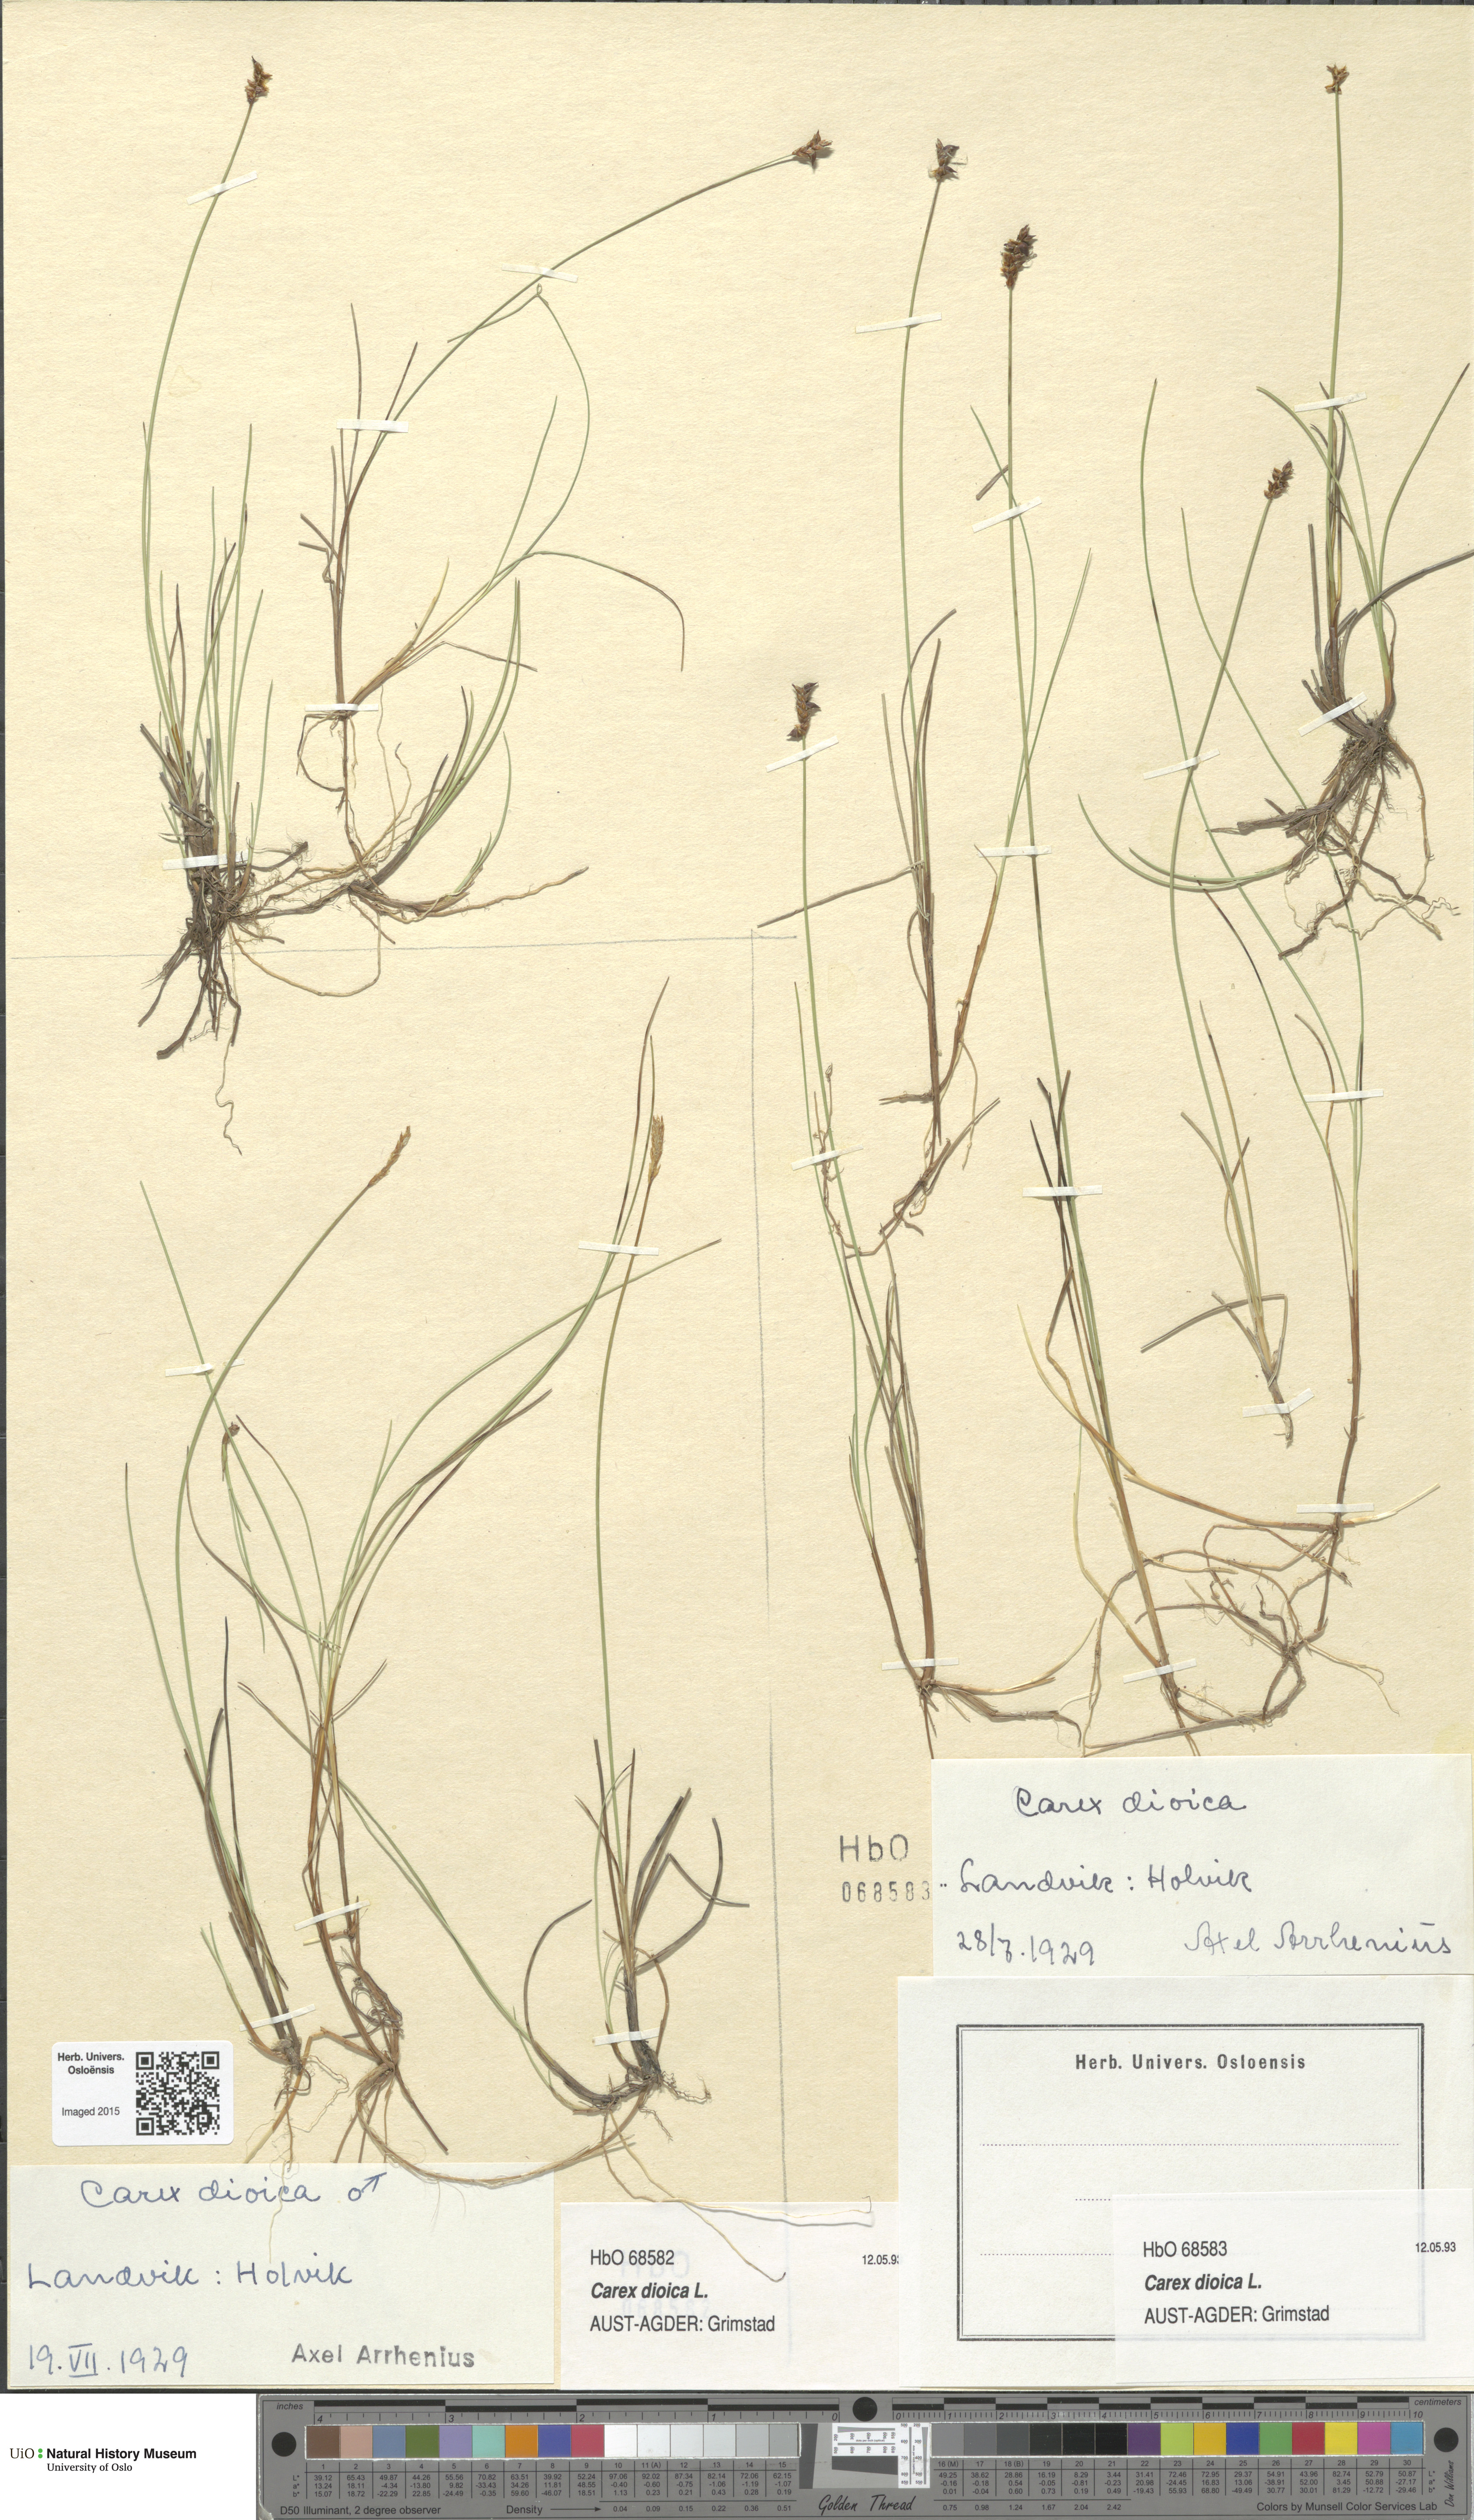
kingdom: Plantae
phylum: Tracheophyta
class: Liliopsida
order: Poales
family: Cyperaceae
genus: Carex
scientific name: Carex dioica
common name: Dioecious sedge
